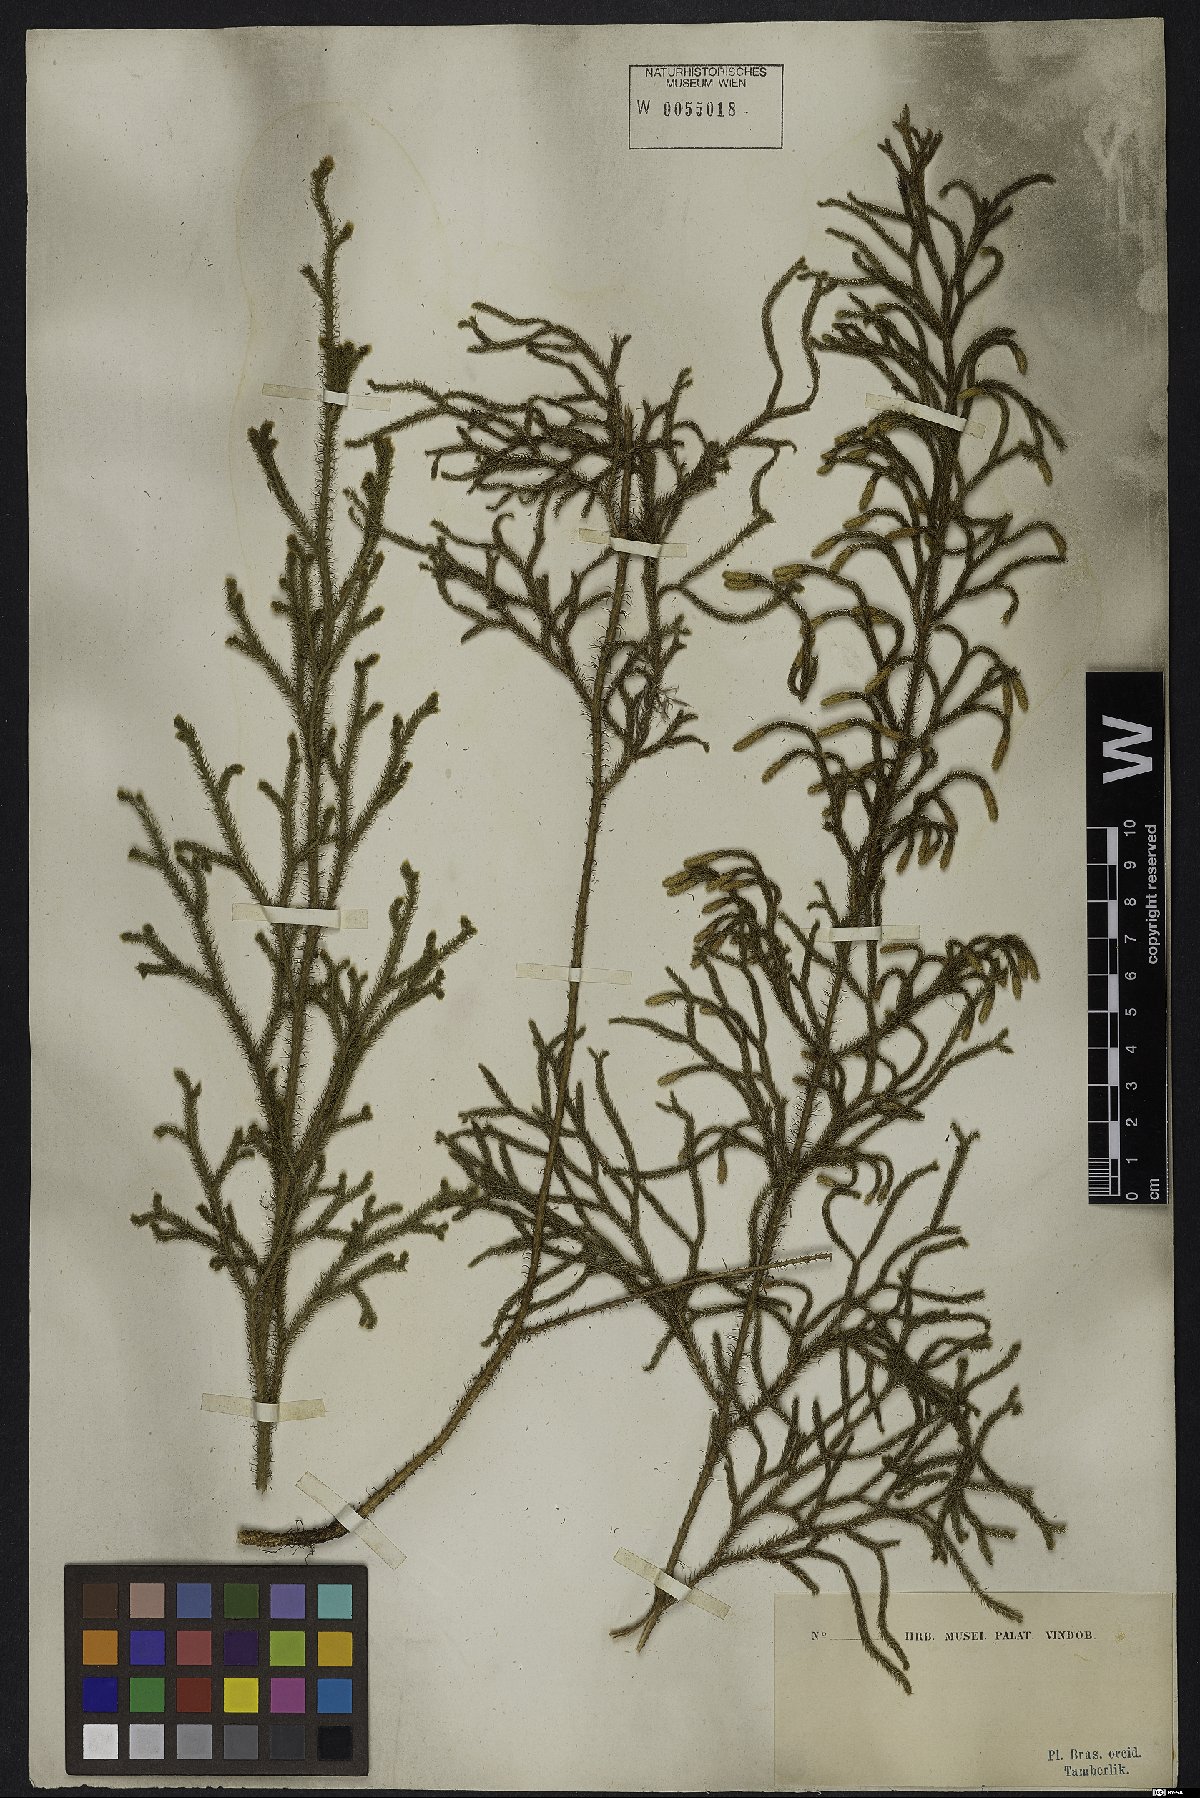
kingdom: Plantae
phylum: Tracheophyta
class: Lycopodiopsida
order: Lycopodiales
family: Lycopodiaceae
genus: Lycopodium
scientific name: Lycopodium
